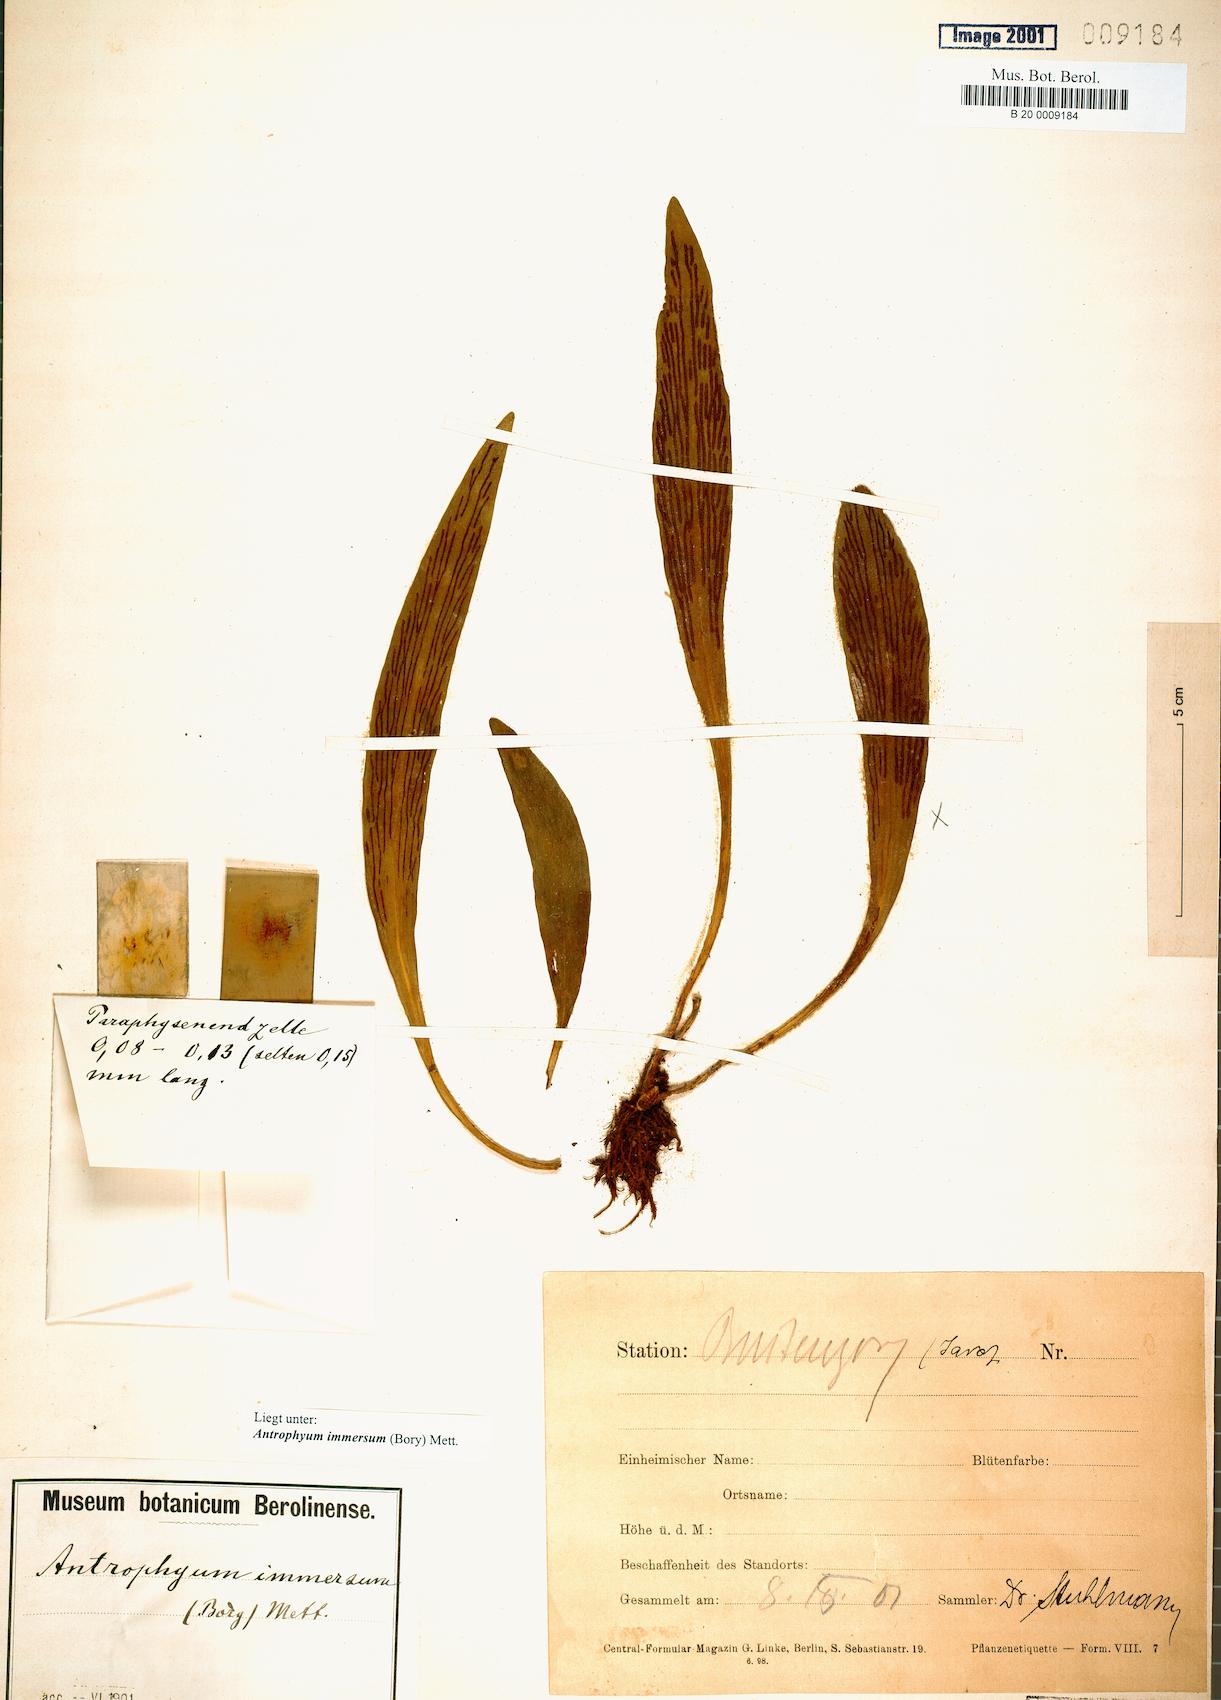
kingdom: Plantae
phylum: Tracheophyta
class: Polypodiopsida
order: Polypodiales
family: Pteridaceae
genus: Antrophyum
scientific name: Antrophyum parvulum
